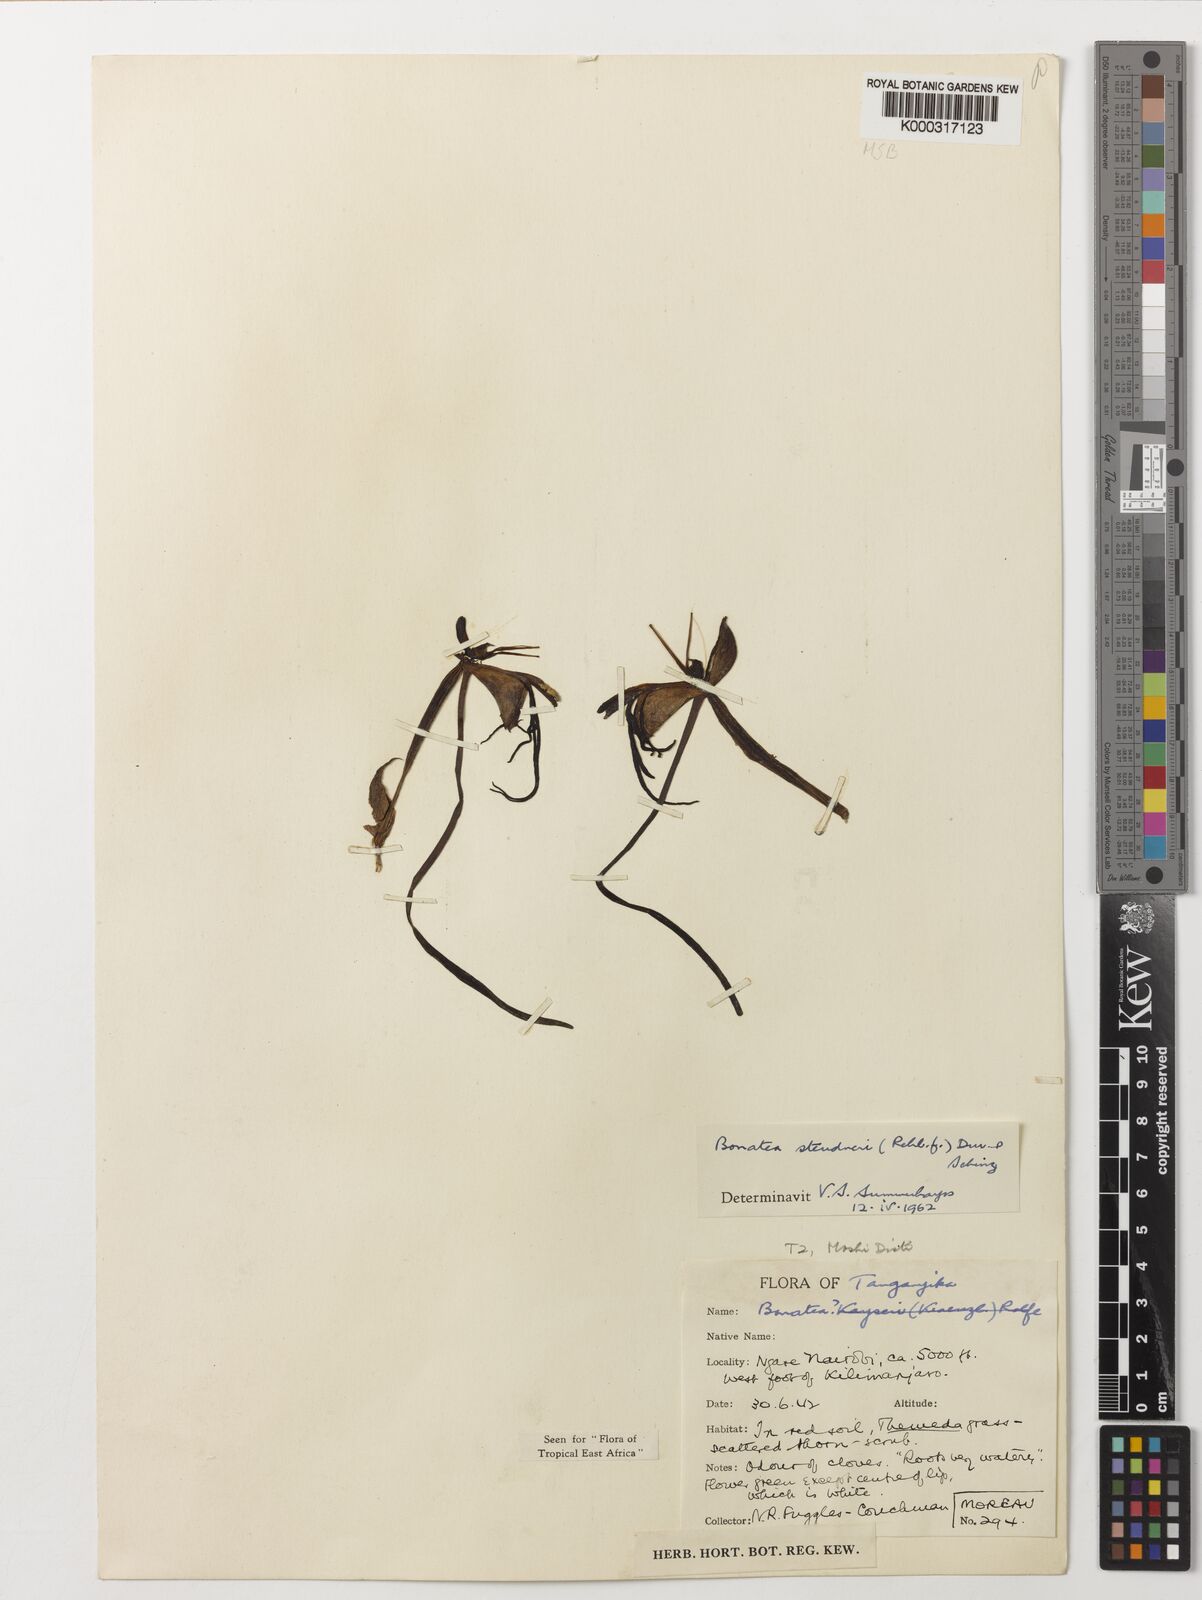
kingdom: Plantae
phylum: Tracheophyta
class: Liliopsida
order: Asparagales
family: Orchidaceae
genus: Bonatea
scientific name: Bonatea steudneri
